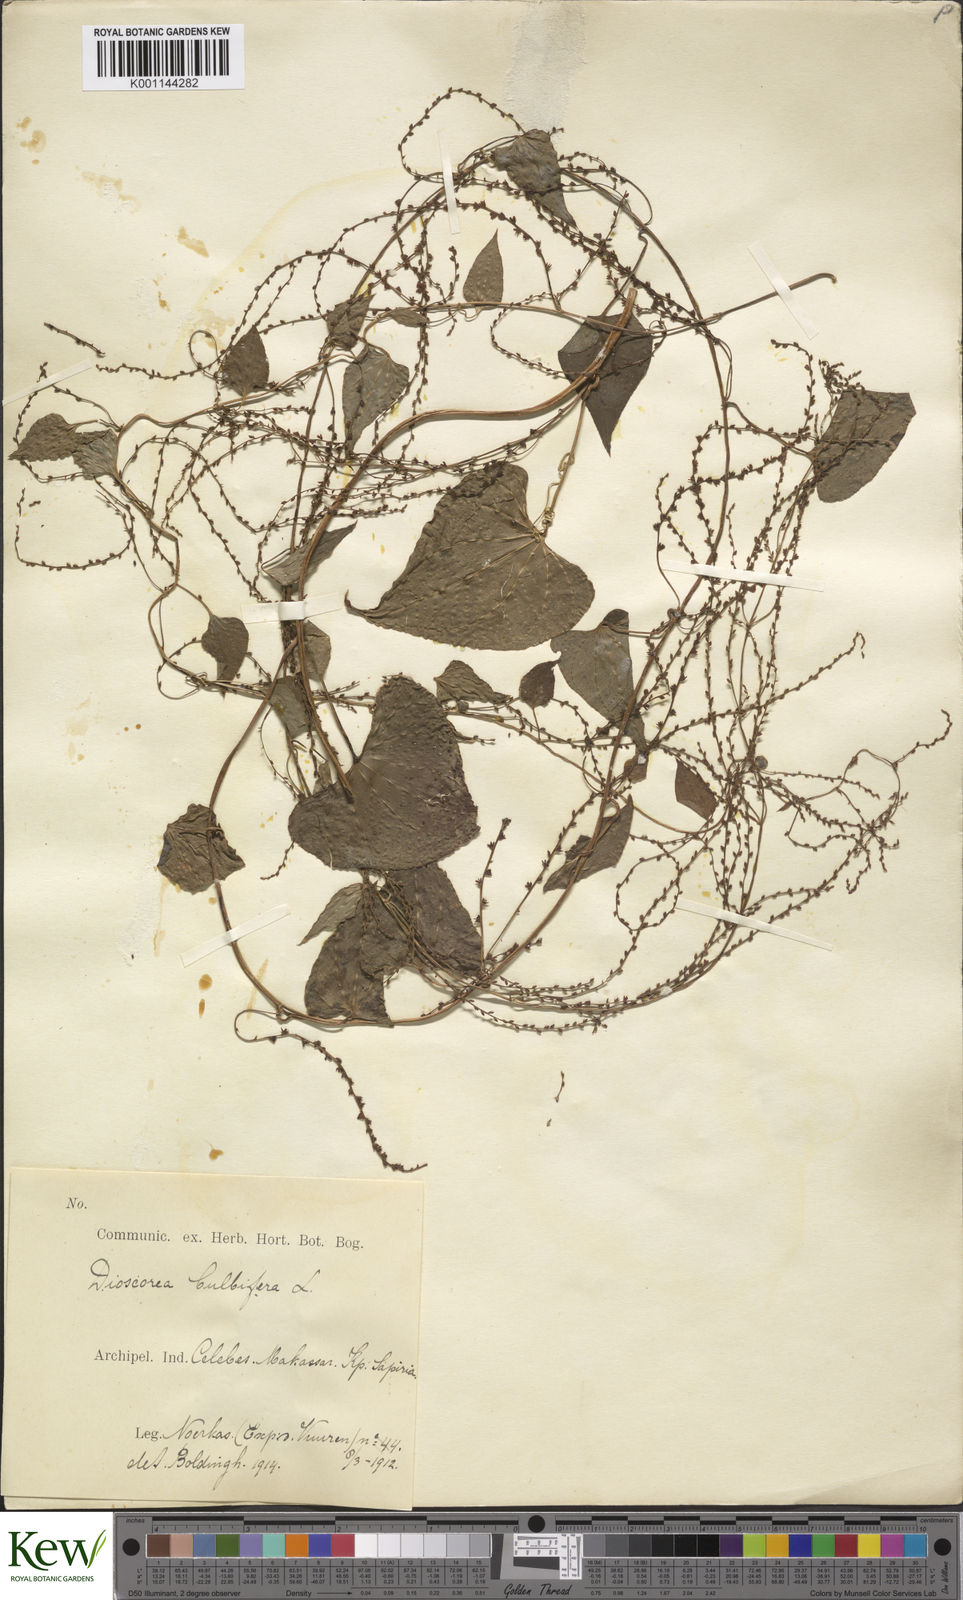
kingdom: Plantae
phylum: Tracheophyta
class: Liliopsida
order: Dioscoreales
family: Dioscoreaceae
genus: Dioscorea
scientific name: Dioscorea bulbifera
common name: Air yam
